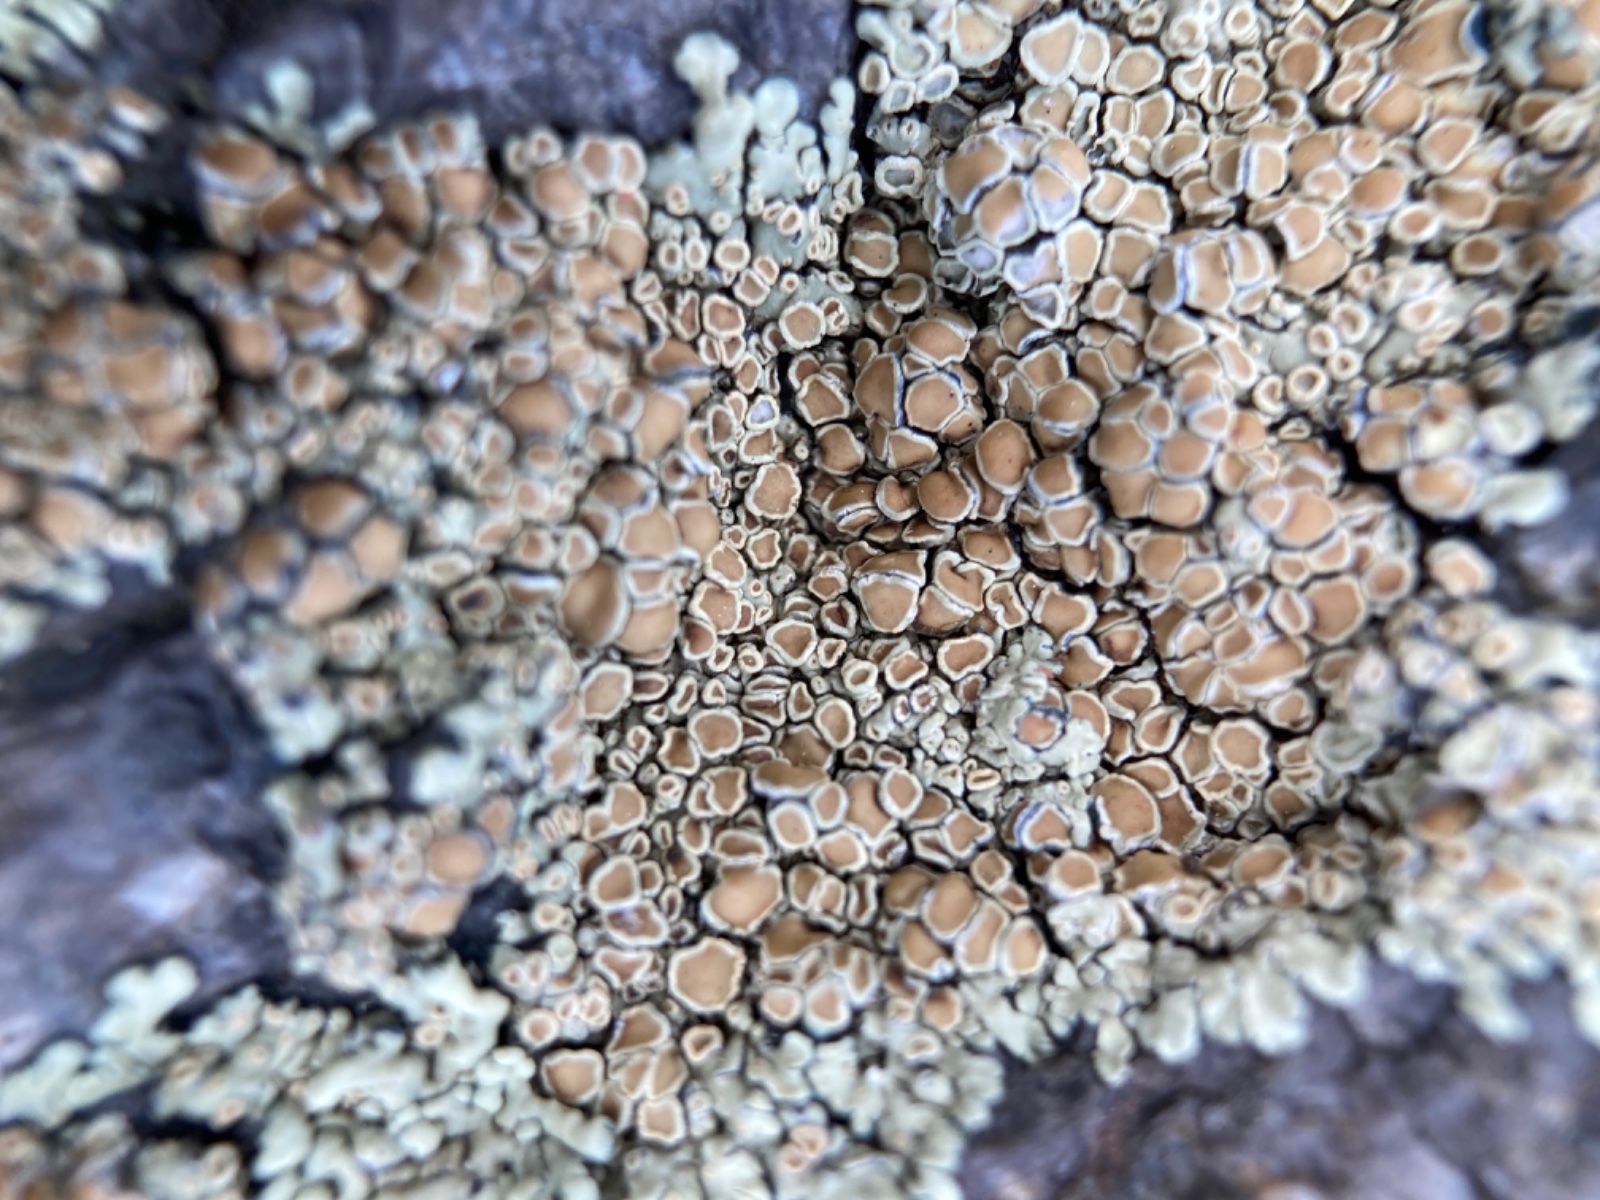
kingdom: Fungi
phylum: Ascomycota
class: Lecanoromycetes
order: Lecanorales
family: Lecanoraceae
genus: Protoparmeliopsis
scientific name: Protoparmeliopsis muralis
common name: randfliget kantskivelav
